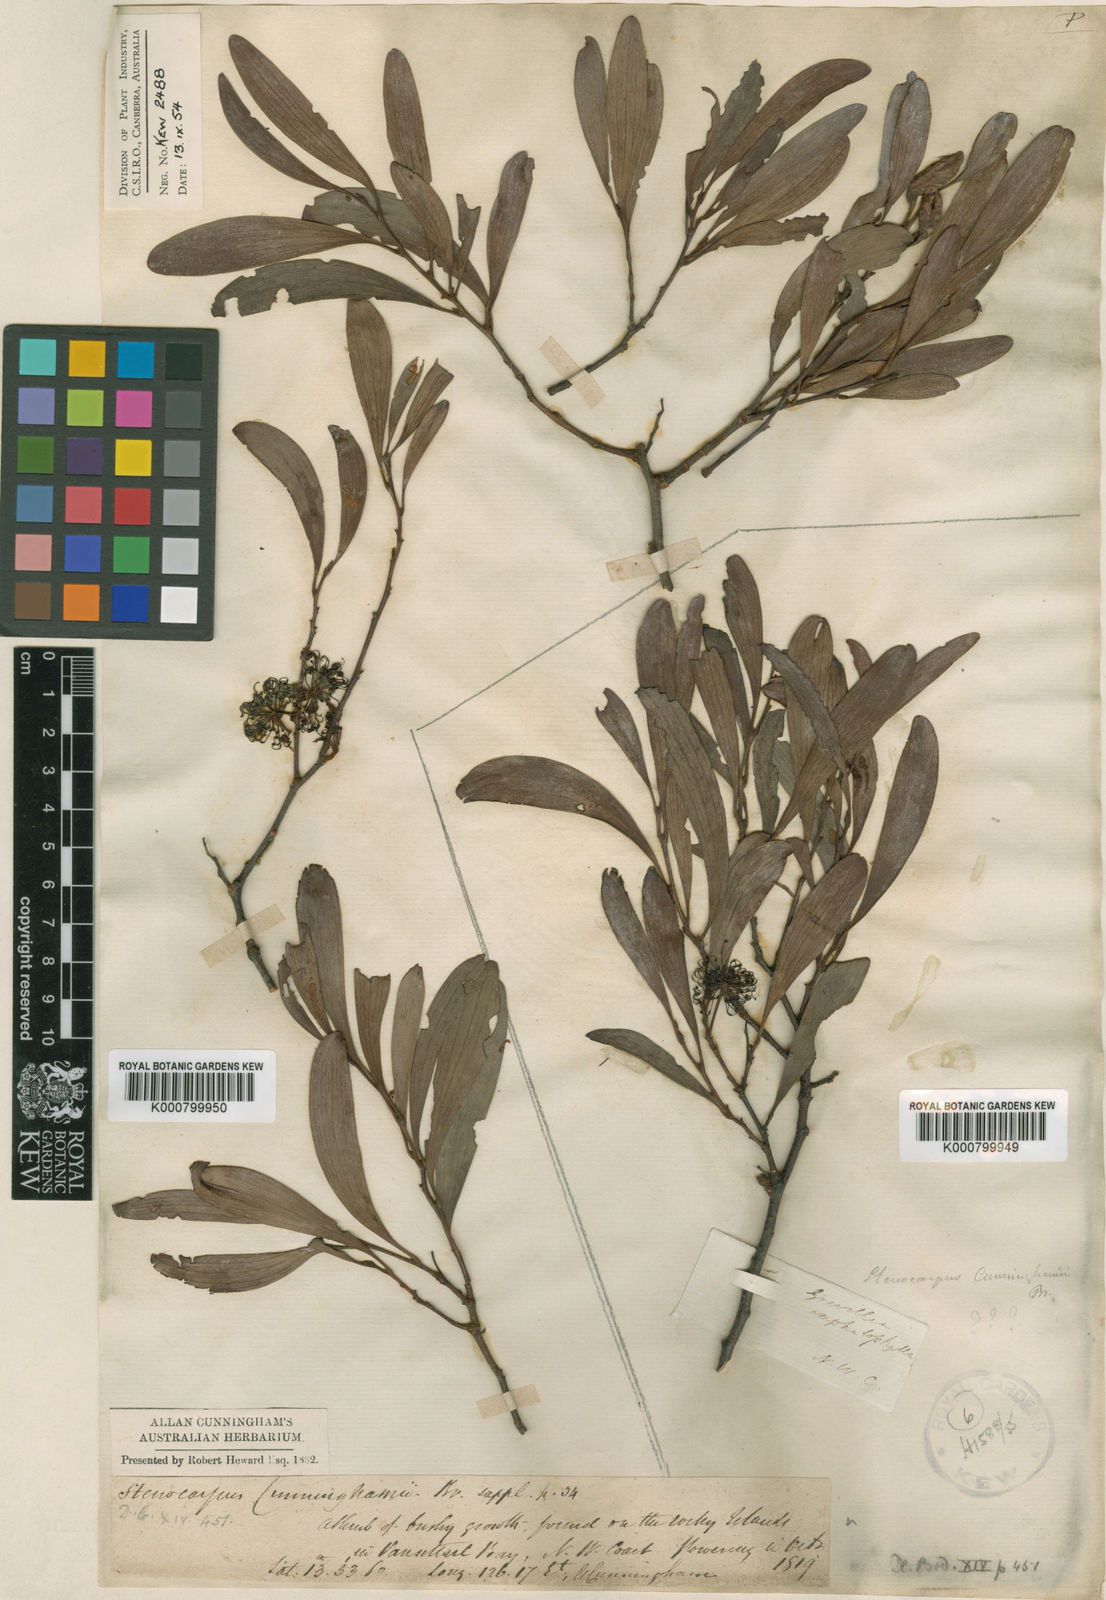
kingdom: Plantae
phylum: Tracheophyta
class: Magnoliopsida
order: Proteales
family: Proteaceae
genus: Stenocarpus
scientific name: Stenocarpus salignus
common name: Red silky-oak
